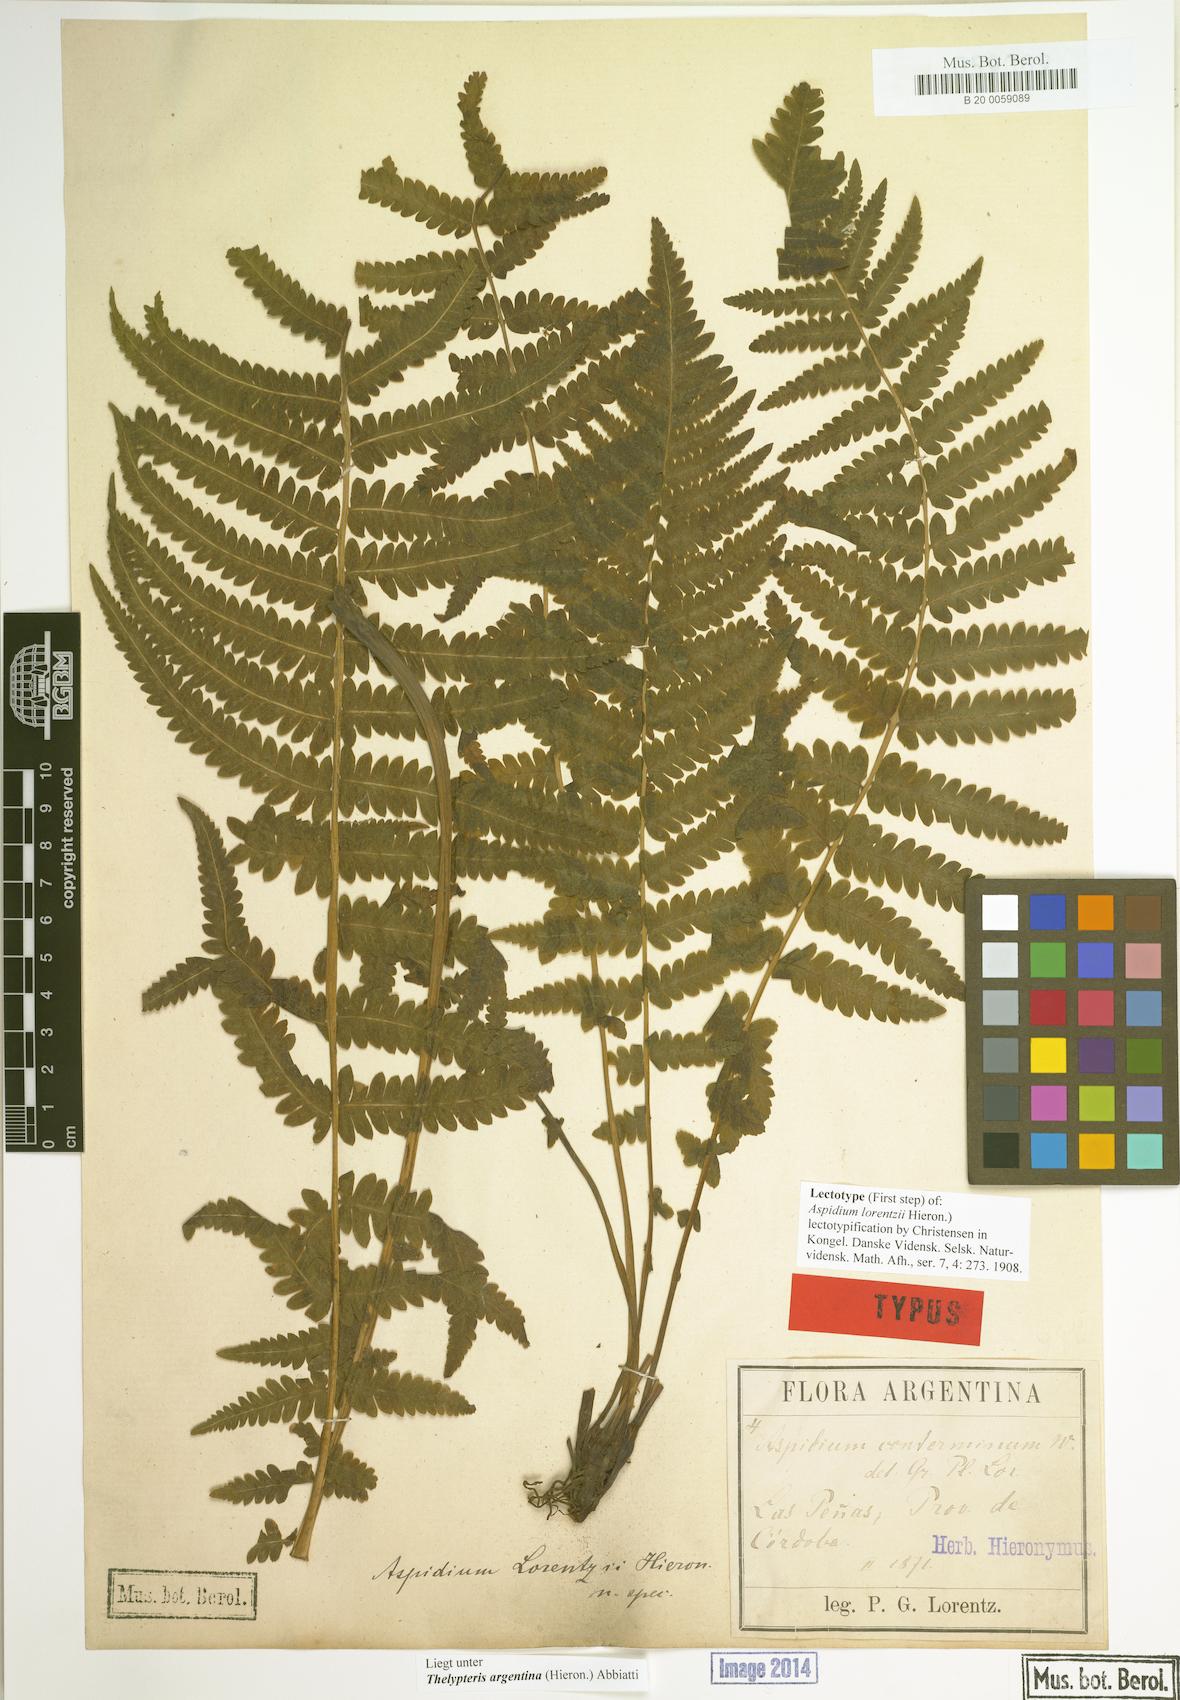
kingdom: Plantae
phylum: Tracheophyta
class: Polypodiopsida
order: Polypodiales
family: Thelypteridaceae
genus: Amauropelta
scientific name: Amauropelta argentina
